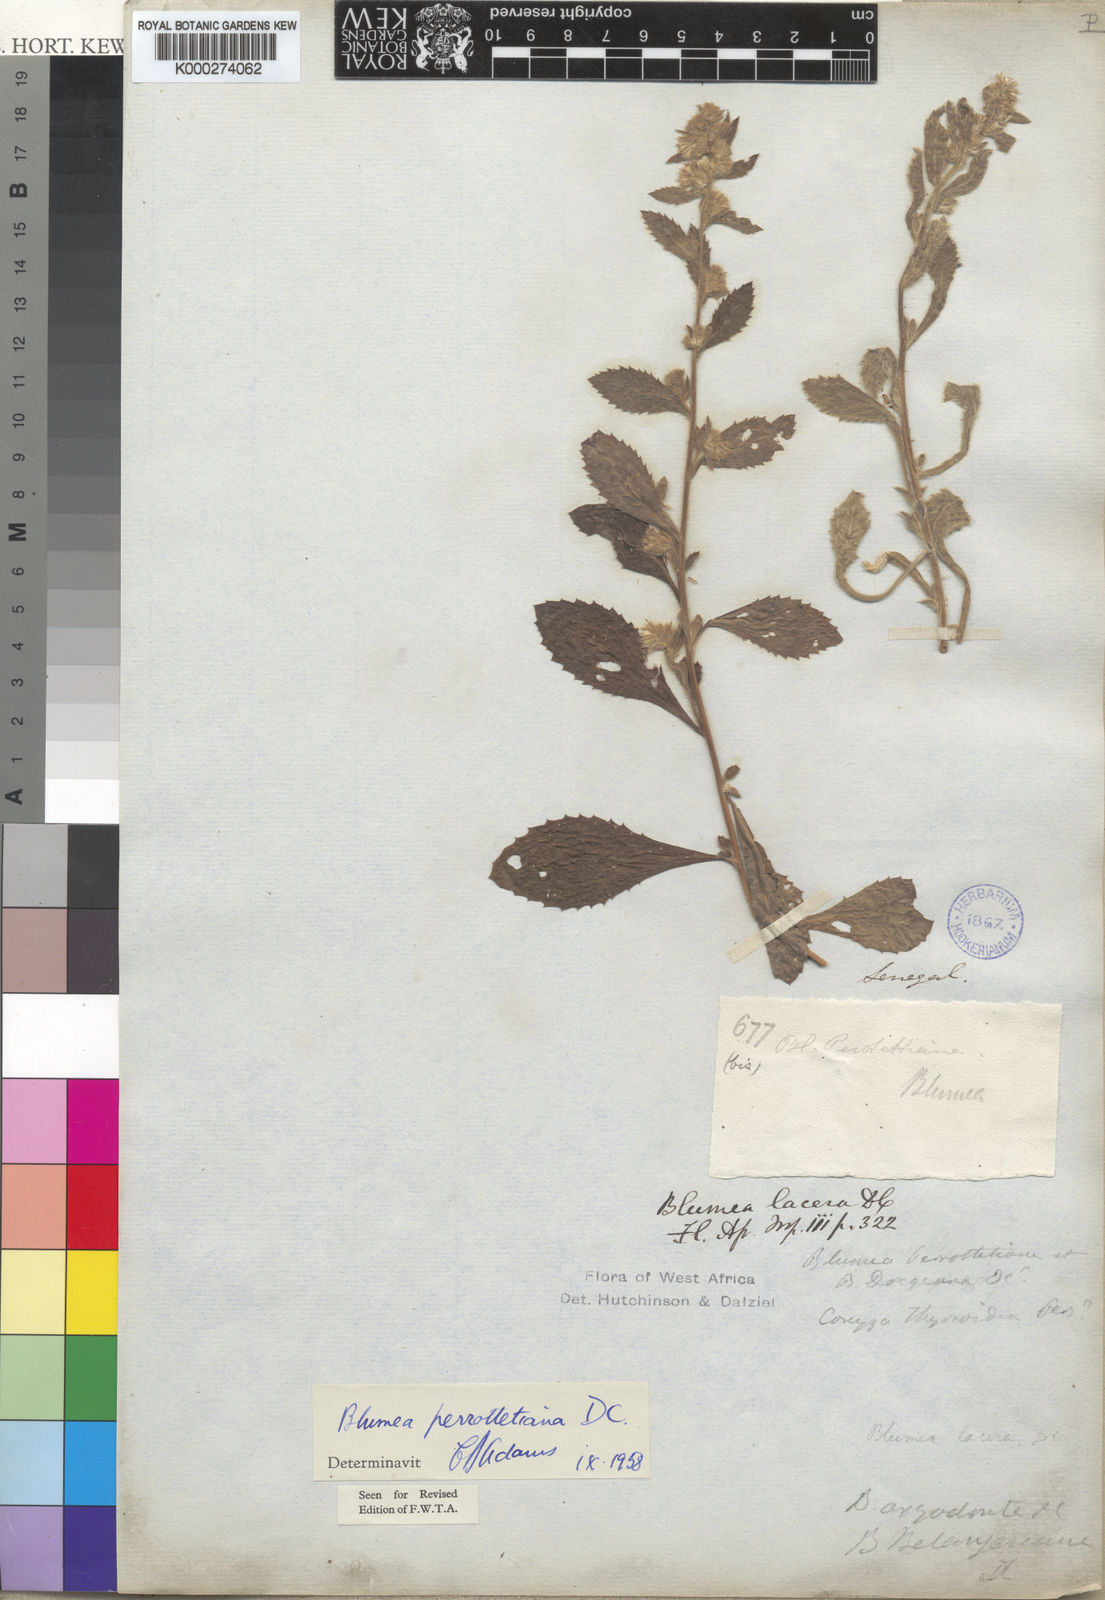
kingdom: Plantae
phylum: Tracheophyta
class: Magnoliopsida
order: Asterales
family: Asteraceae
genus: Blumea
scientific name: Blumea axillaris
